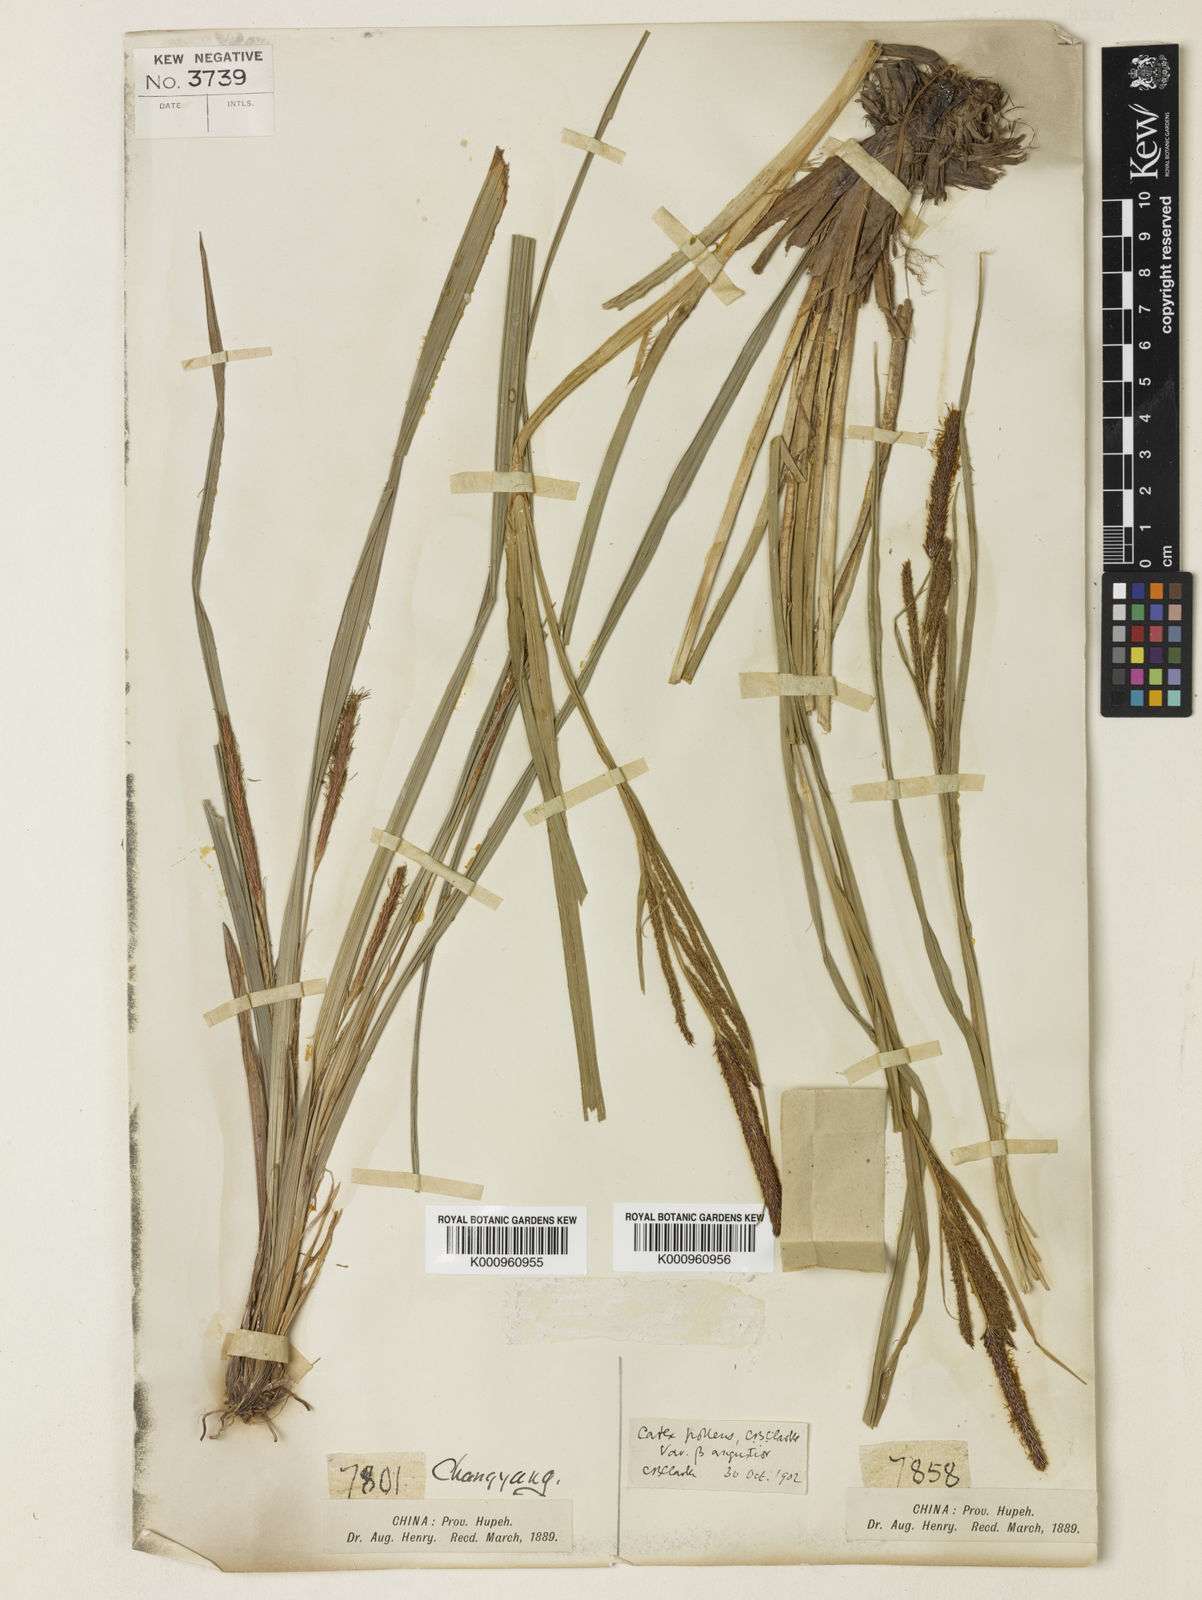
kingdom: Plantae
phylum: Tracheophyta
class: Liliopsida
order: Poales
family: Cyperaceae
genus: Carex
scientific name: Carex dispalata
